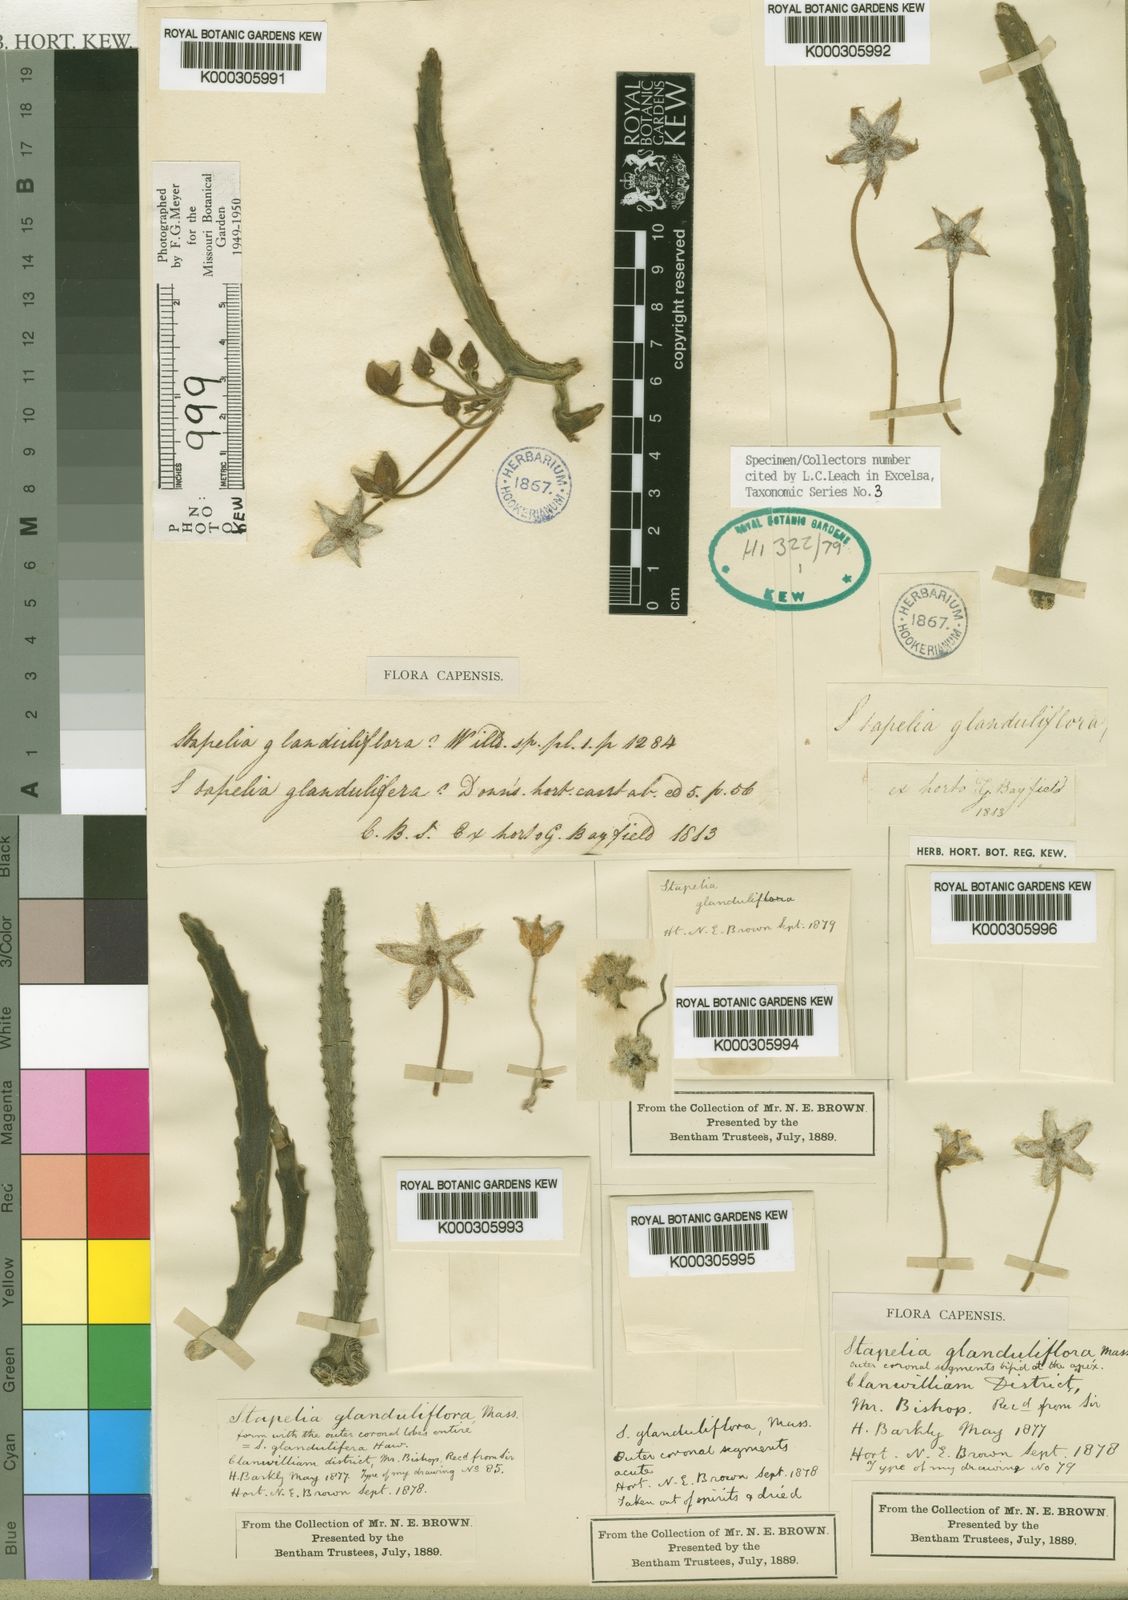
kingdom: Plantae
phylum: Tracheophyta
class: Magnoliopsida
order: Gentianales
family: Apocynaceae
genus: Ceropegia
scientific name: Ceropegia glanduliflora
